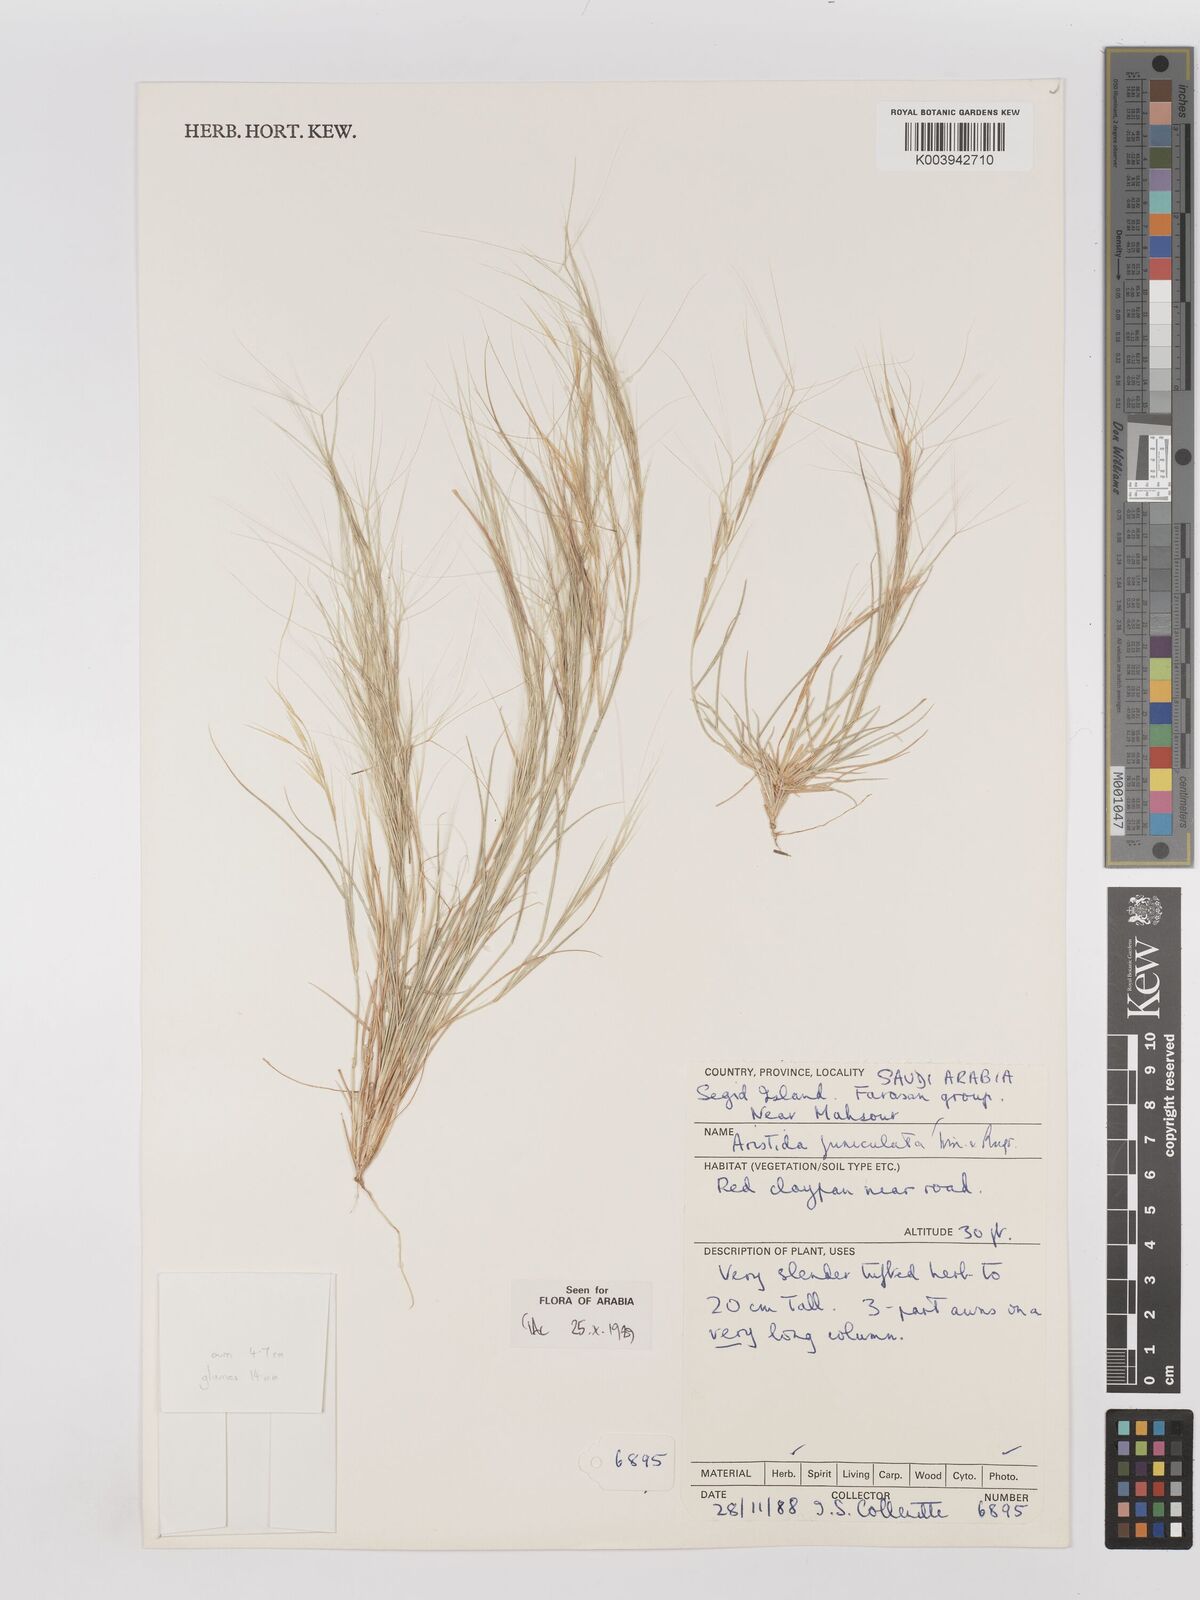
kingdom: Plantae
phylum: Tracheophyta
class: Liliopsida
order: Poales
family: Poaceae
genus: Aristida
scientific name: Aristida funiculata
